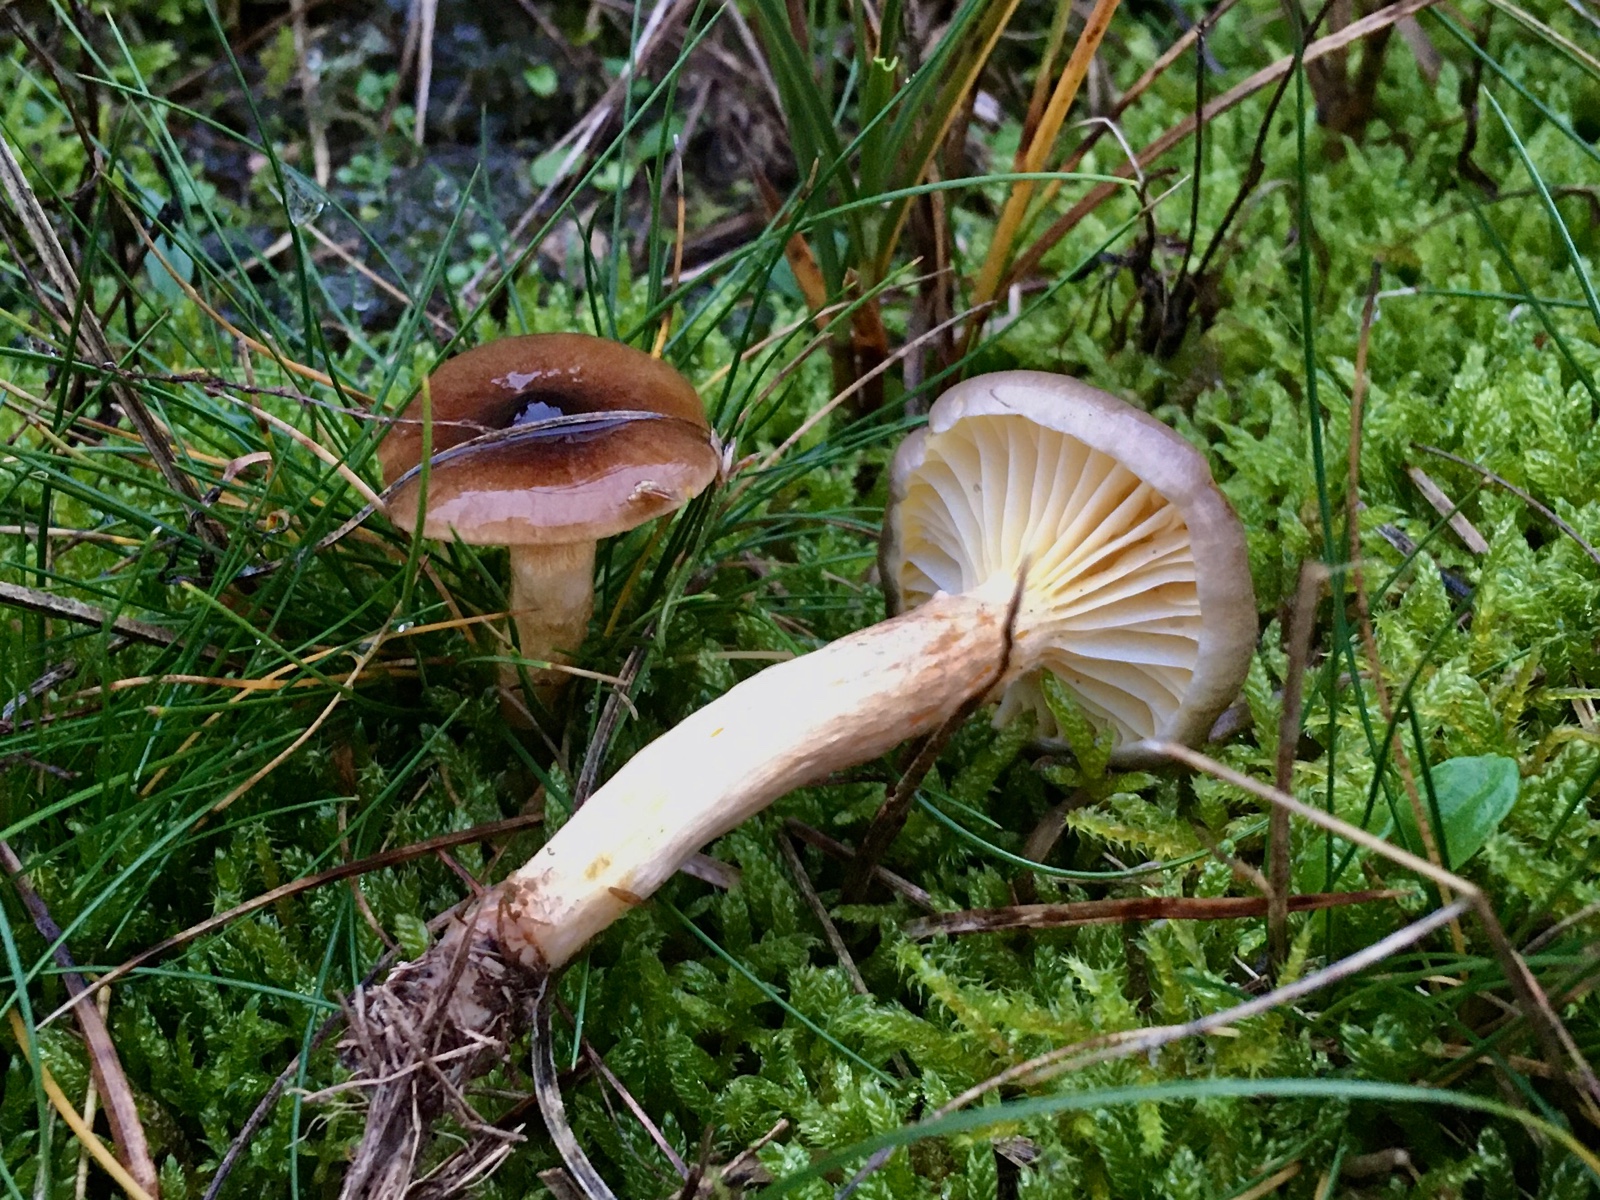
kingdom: Fungi
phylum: Basidiomycota
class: Agaricomycetes
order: Agaricales
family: Hygrophoraceae
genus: Hygrophorus
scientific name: Hygrophorus hypothejus
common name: frost-sneglehat
